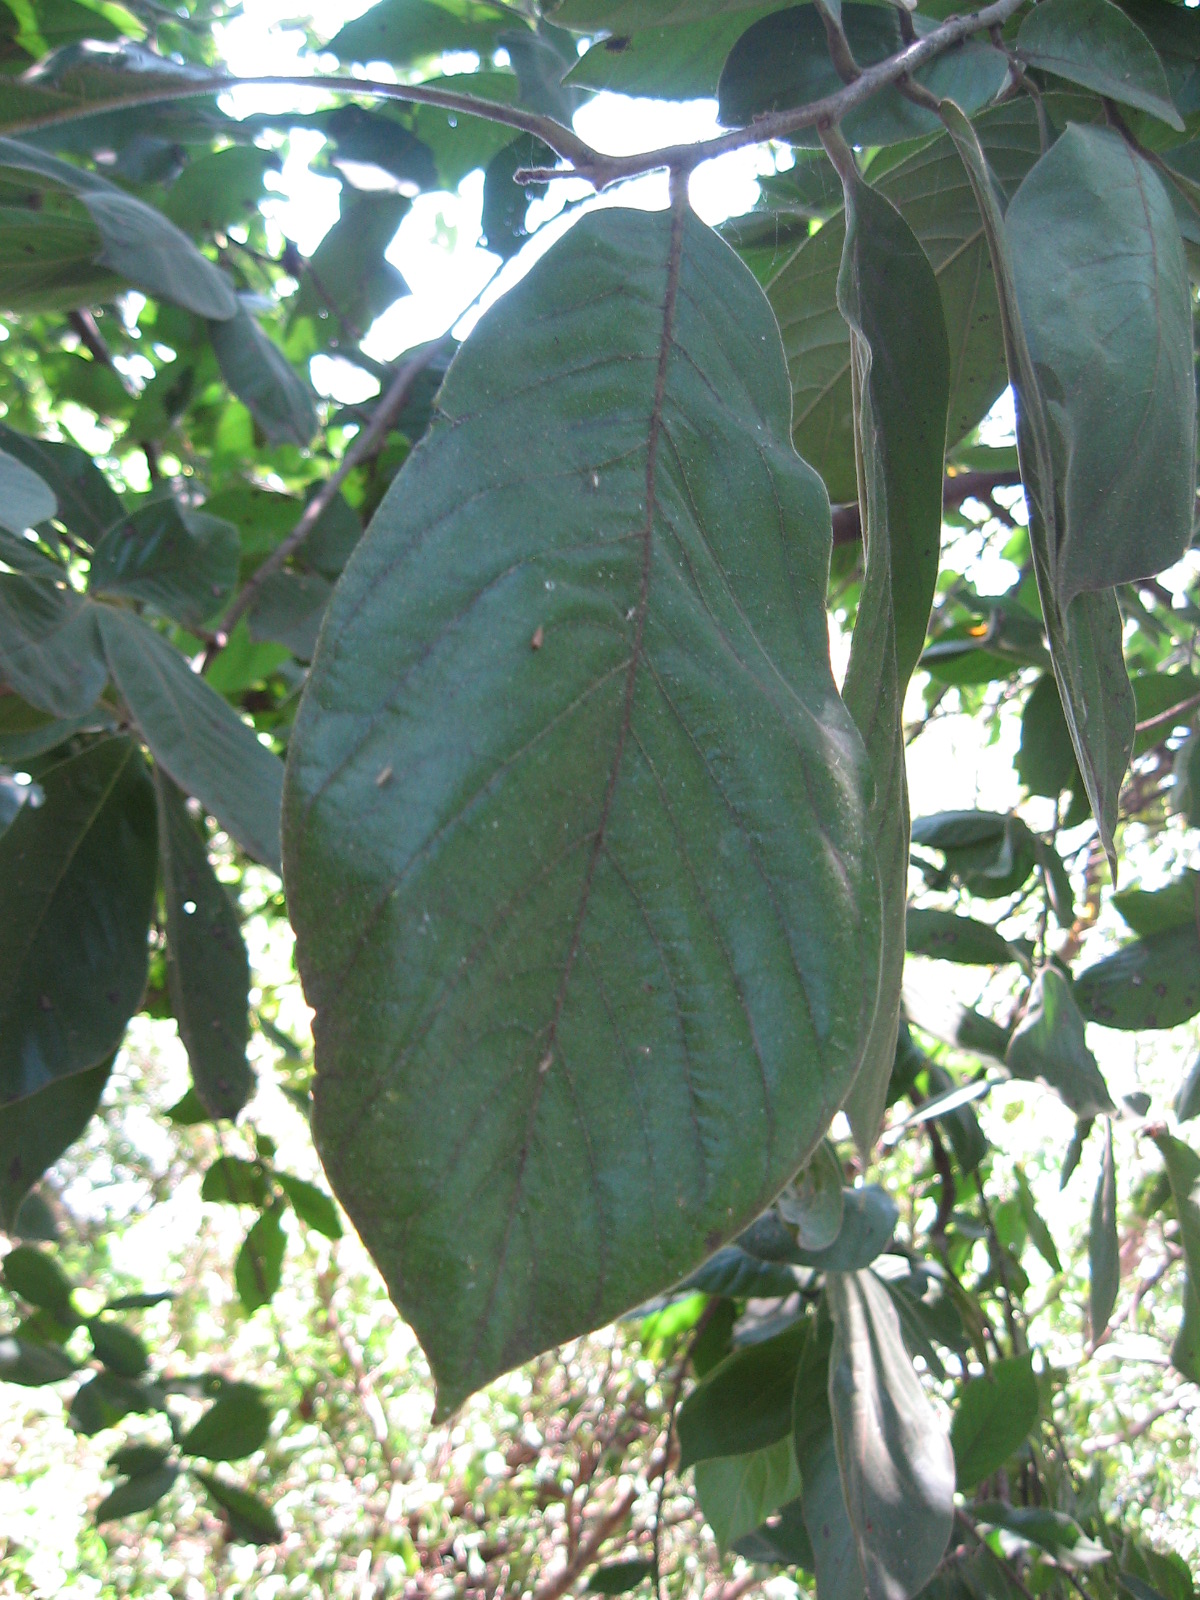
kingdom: Plantae
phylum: Tracheophyta
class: Magnoliopsida
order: Magnoliales
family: Annonaceae
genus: Sapranthus
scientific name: Sapranthus violaceus
